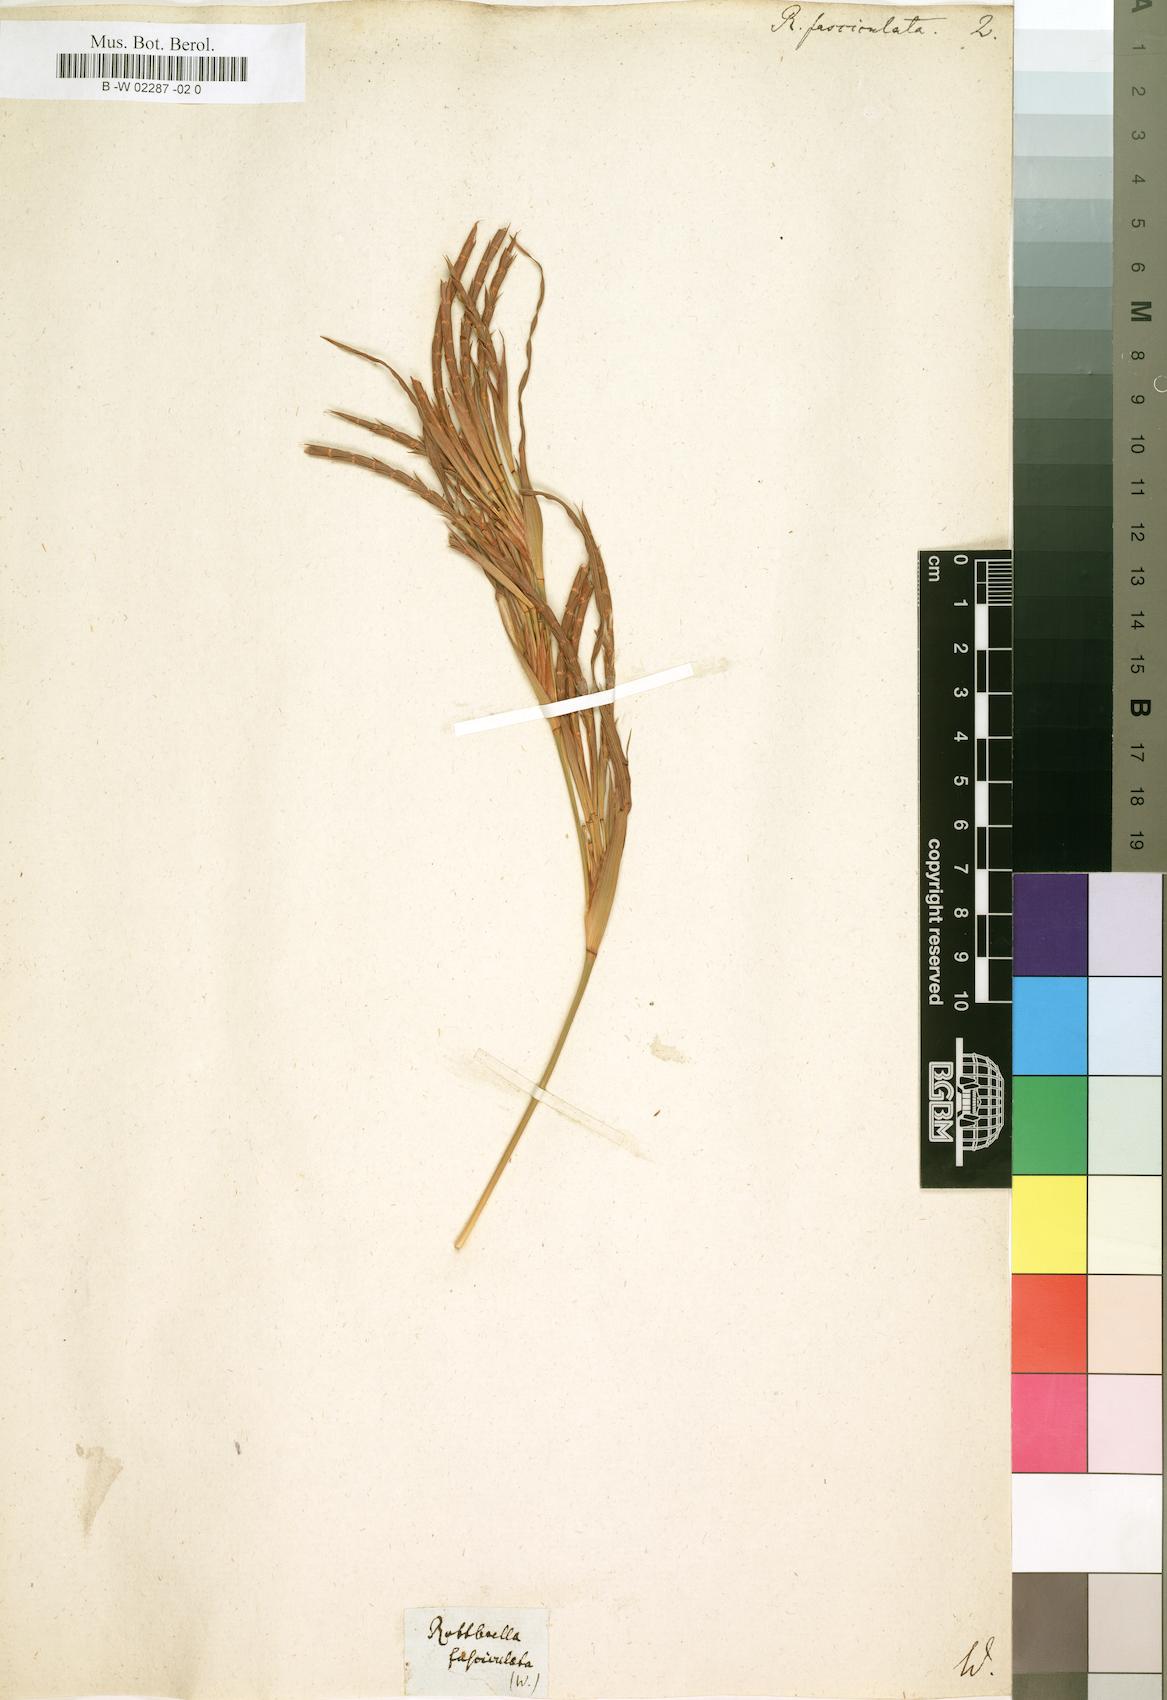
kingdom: Plantae
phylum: Tracheophyta
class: Liliopsida
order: Poales
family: Poaceae
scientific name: Poaceae
